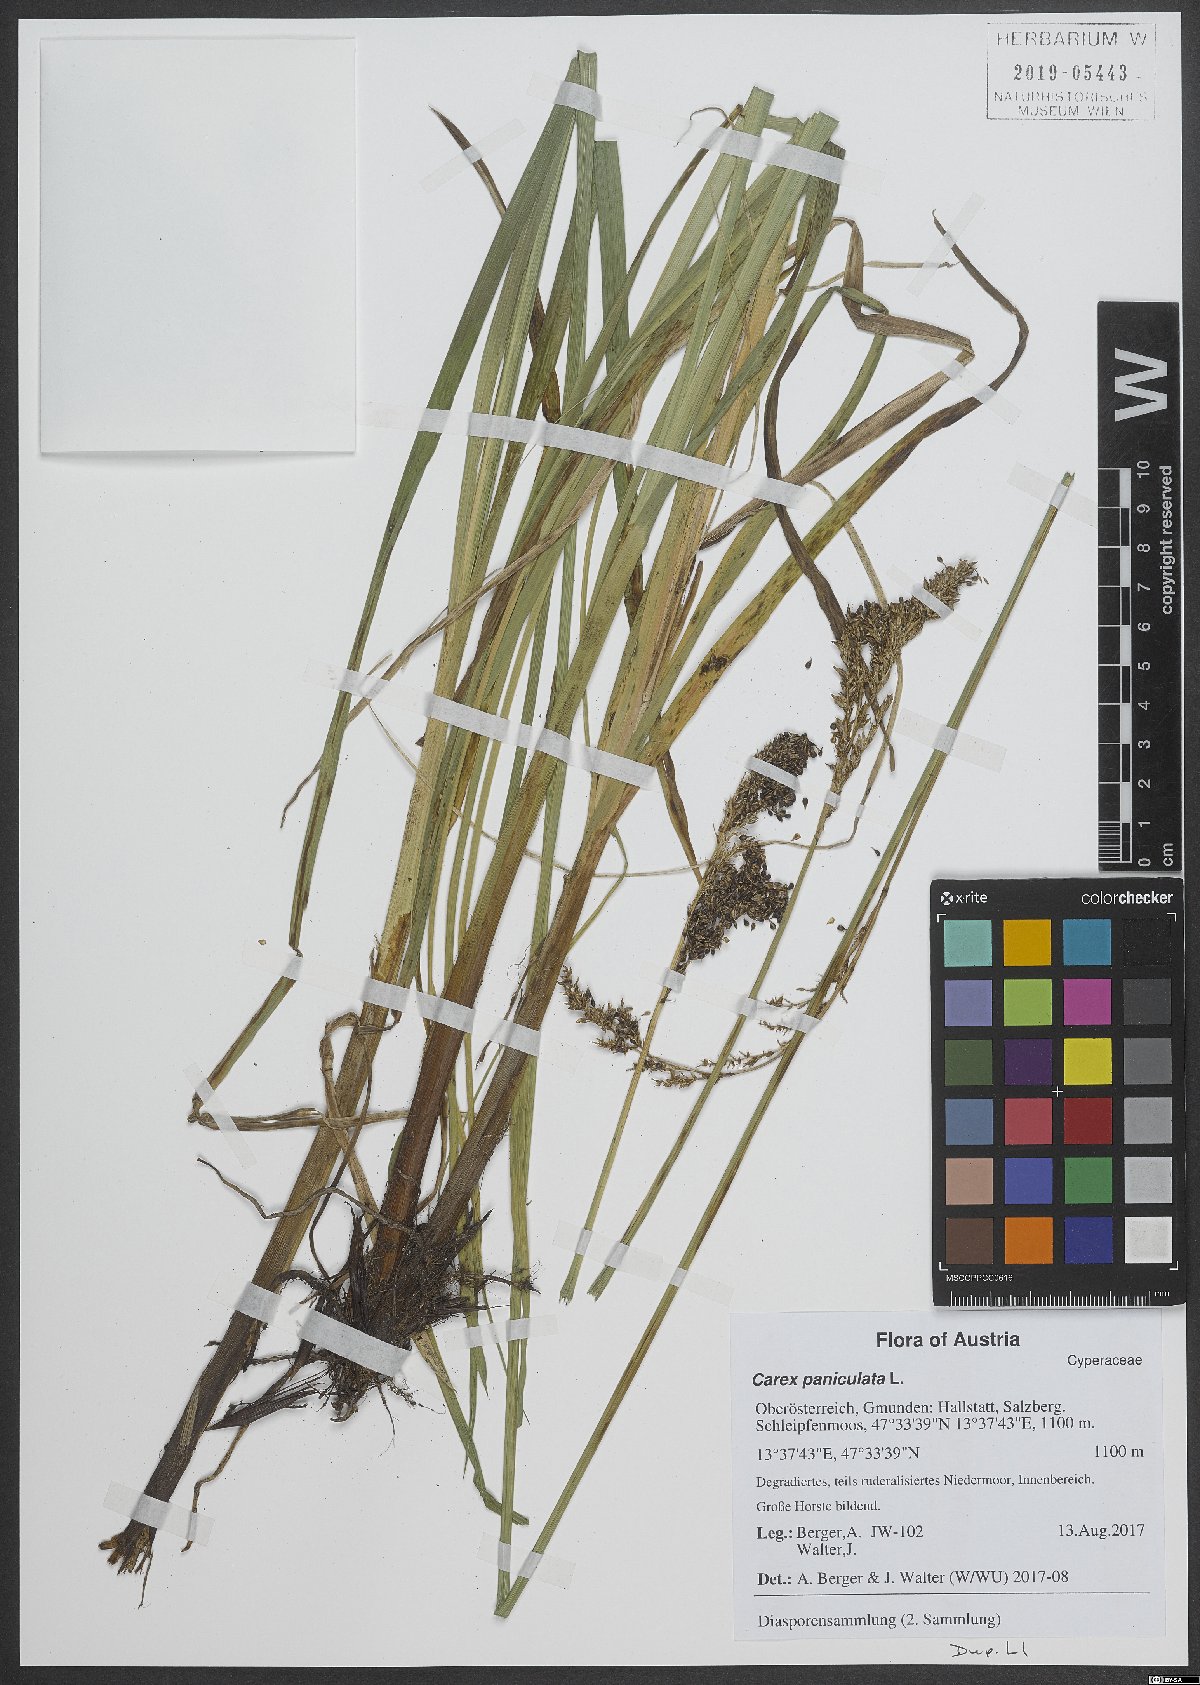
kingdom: Plantae
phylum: Tracheophyta
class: Liliopsida
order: Poales
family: Cyperaceae
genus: Carex
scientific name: Carex paniculata
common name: Greater tussock-sedge
